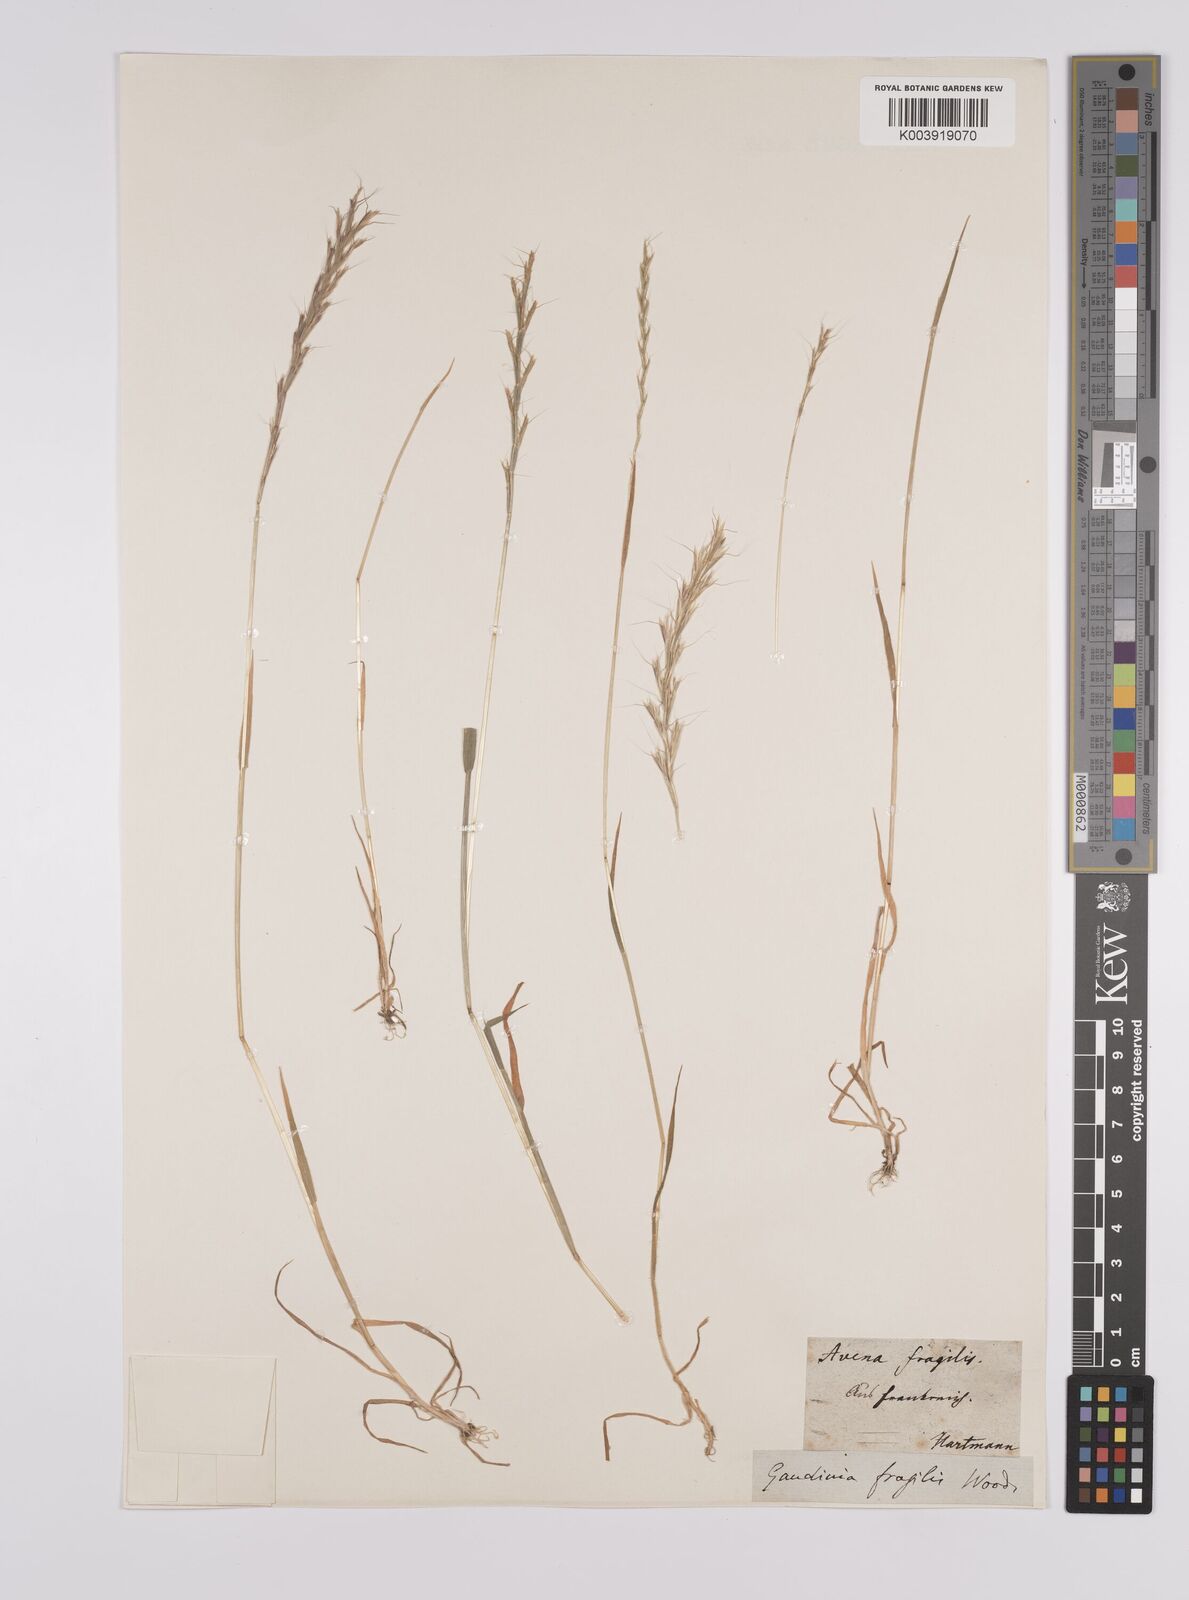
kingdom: Plantae
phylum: Tracheophyta
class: Liliopsida
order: Poales
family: Poaceae
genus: Gaudinia
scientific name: Gaudinia fragilis
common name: French oat-grass
